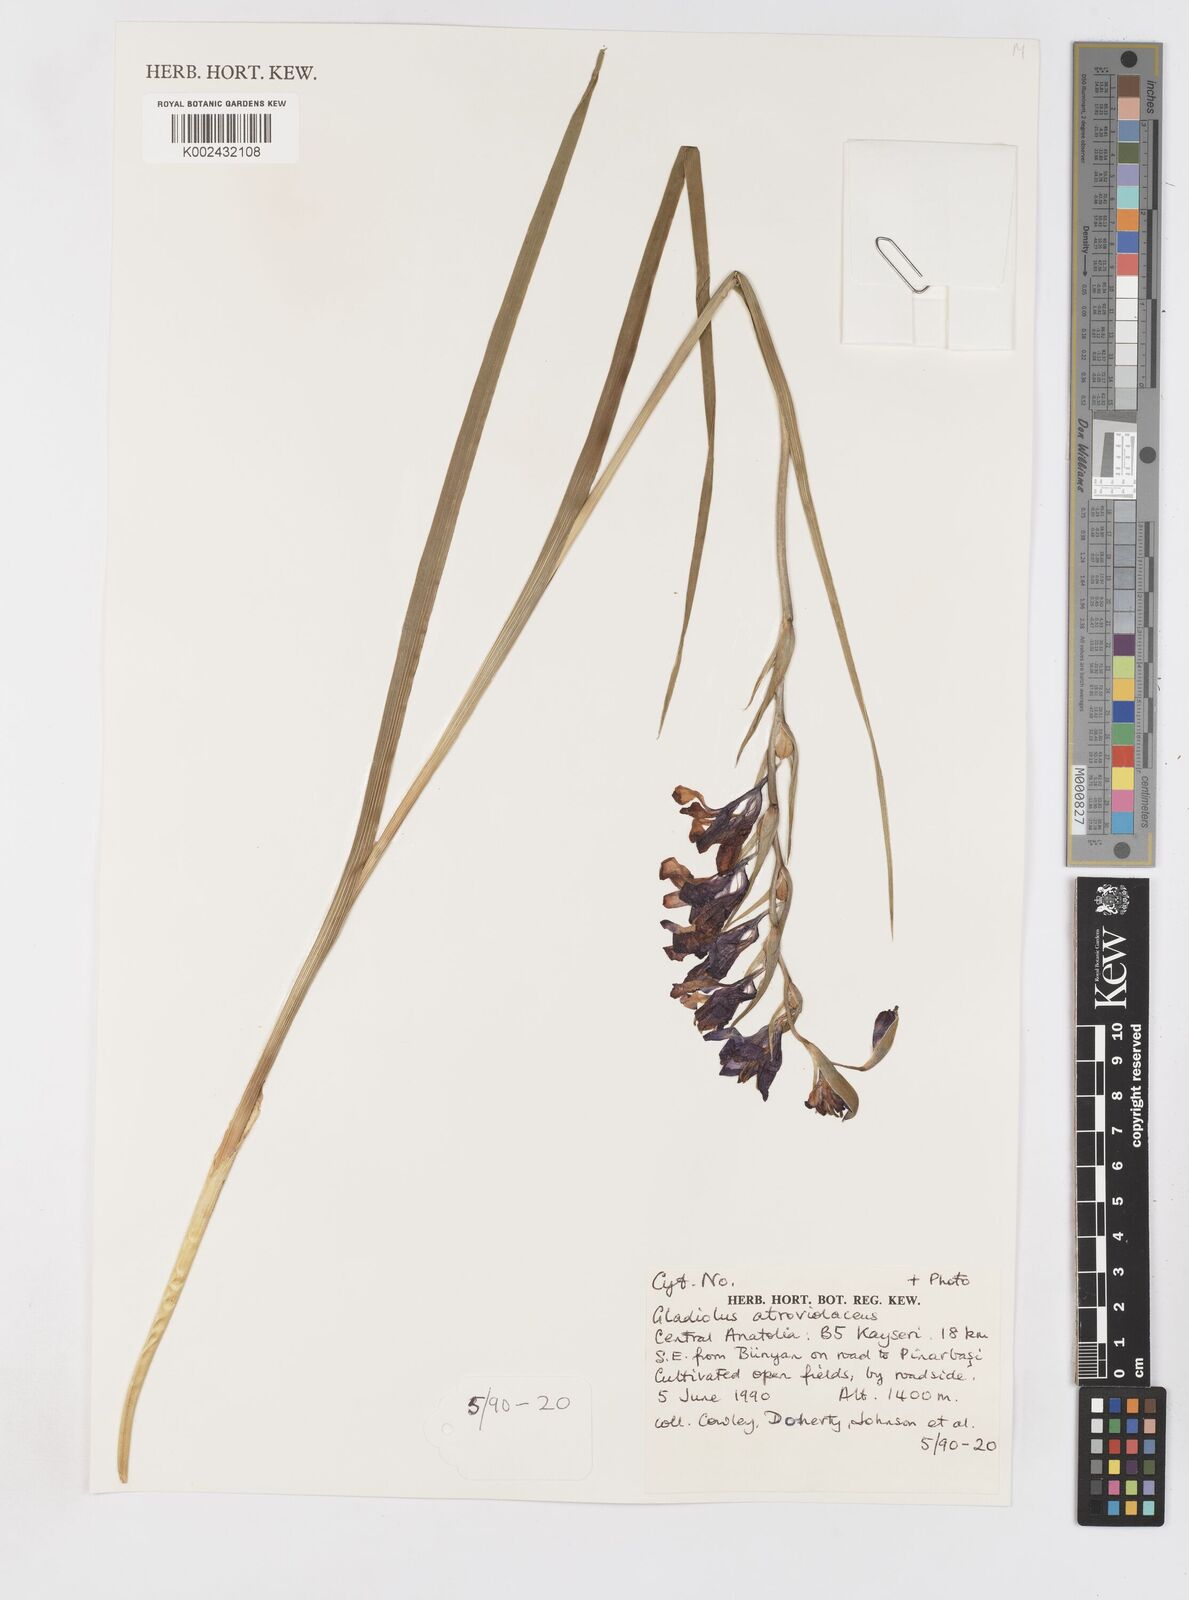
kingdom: Plantae
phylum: Tracheophyta
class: Liliopsida
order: Asparagales
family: Iridaceae
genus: Gladiolus
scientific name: Gladiolus atroviolaceus
